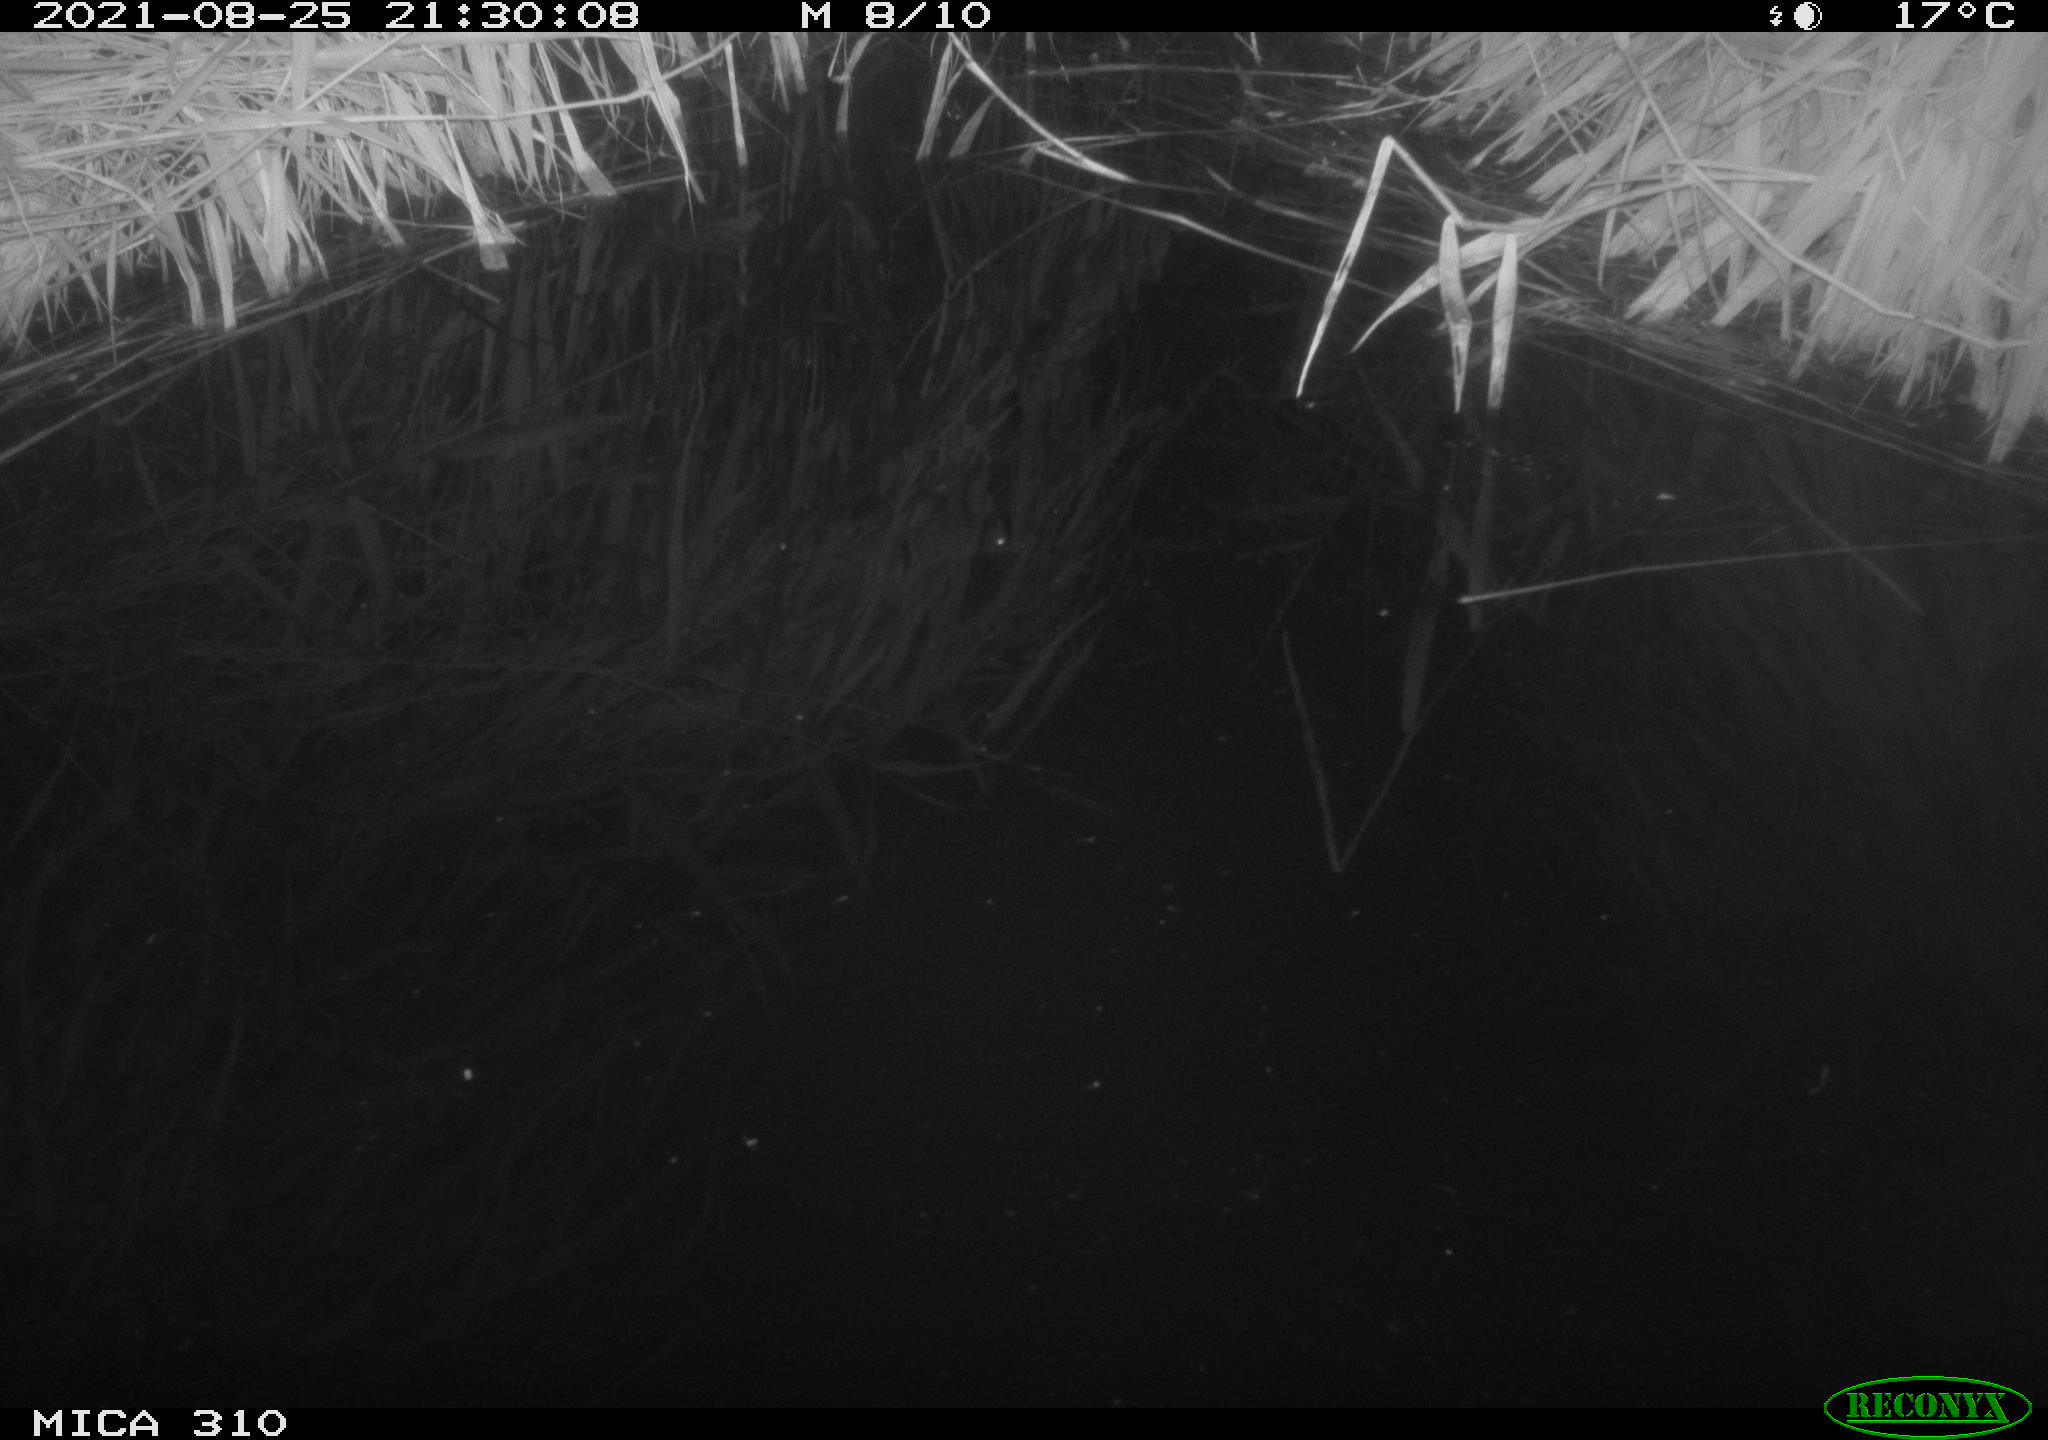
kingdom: Animalia
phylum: Chordata
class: Aves
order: Anseriformes
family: Anatidae
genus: Anas
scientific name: Anas platyrhynchos
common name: Mallard
